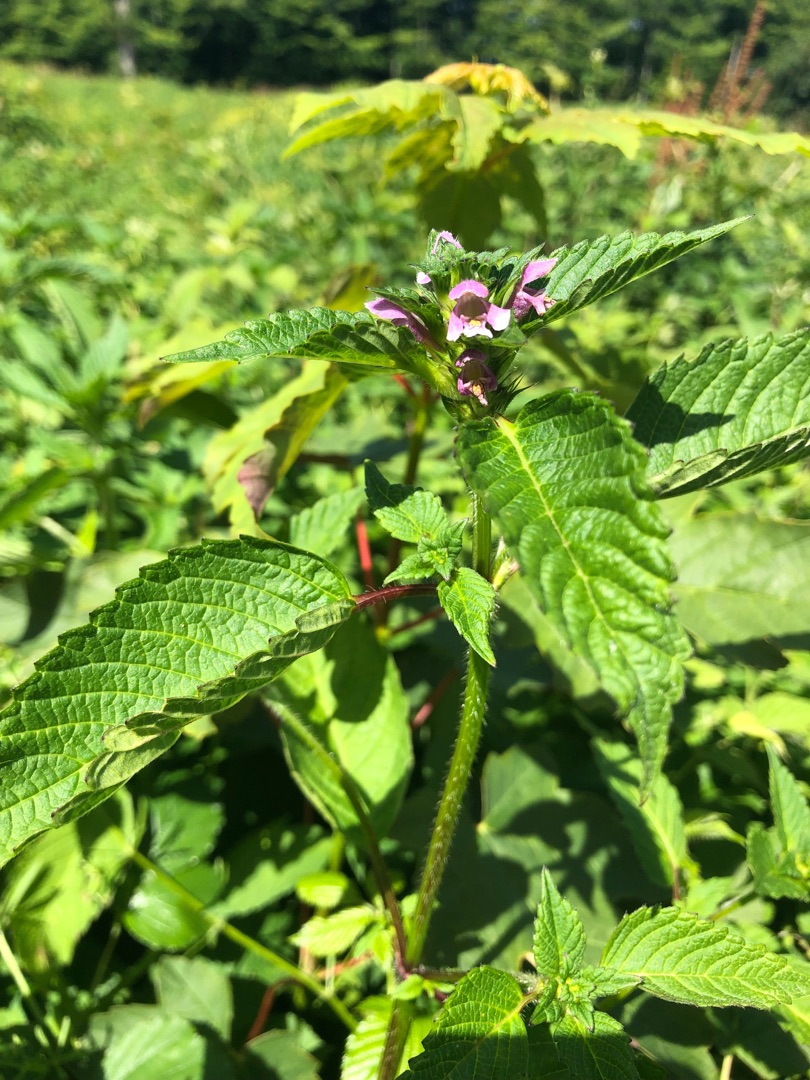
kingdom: Plantae
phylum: Tracheophyta
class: Magnoliopsida
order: Lamiales
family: Lamiaceae
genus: Galeopsis
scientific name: Galeopsis tetrahit
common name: Almindelig hanekro
